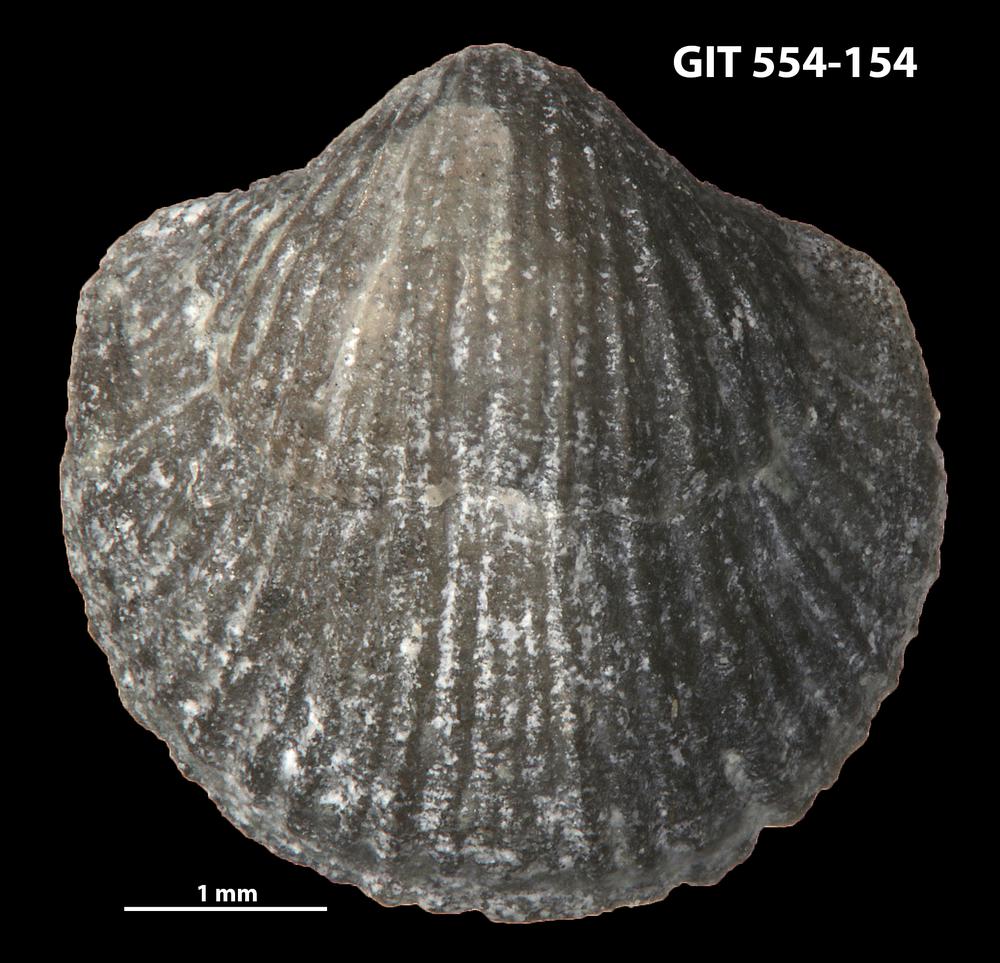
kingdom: Animalia
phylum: Brachiopoda
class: Rhynchonellata
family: Dalmanellidae
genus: Resserella
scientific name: Resserella sabrinae
